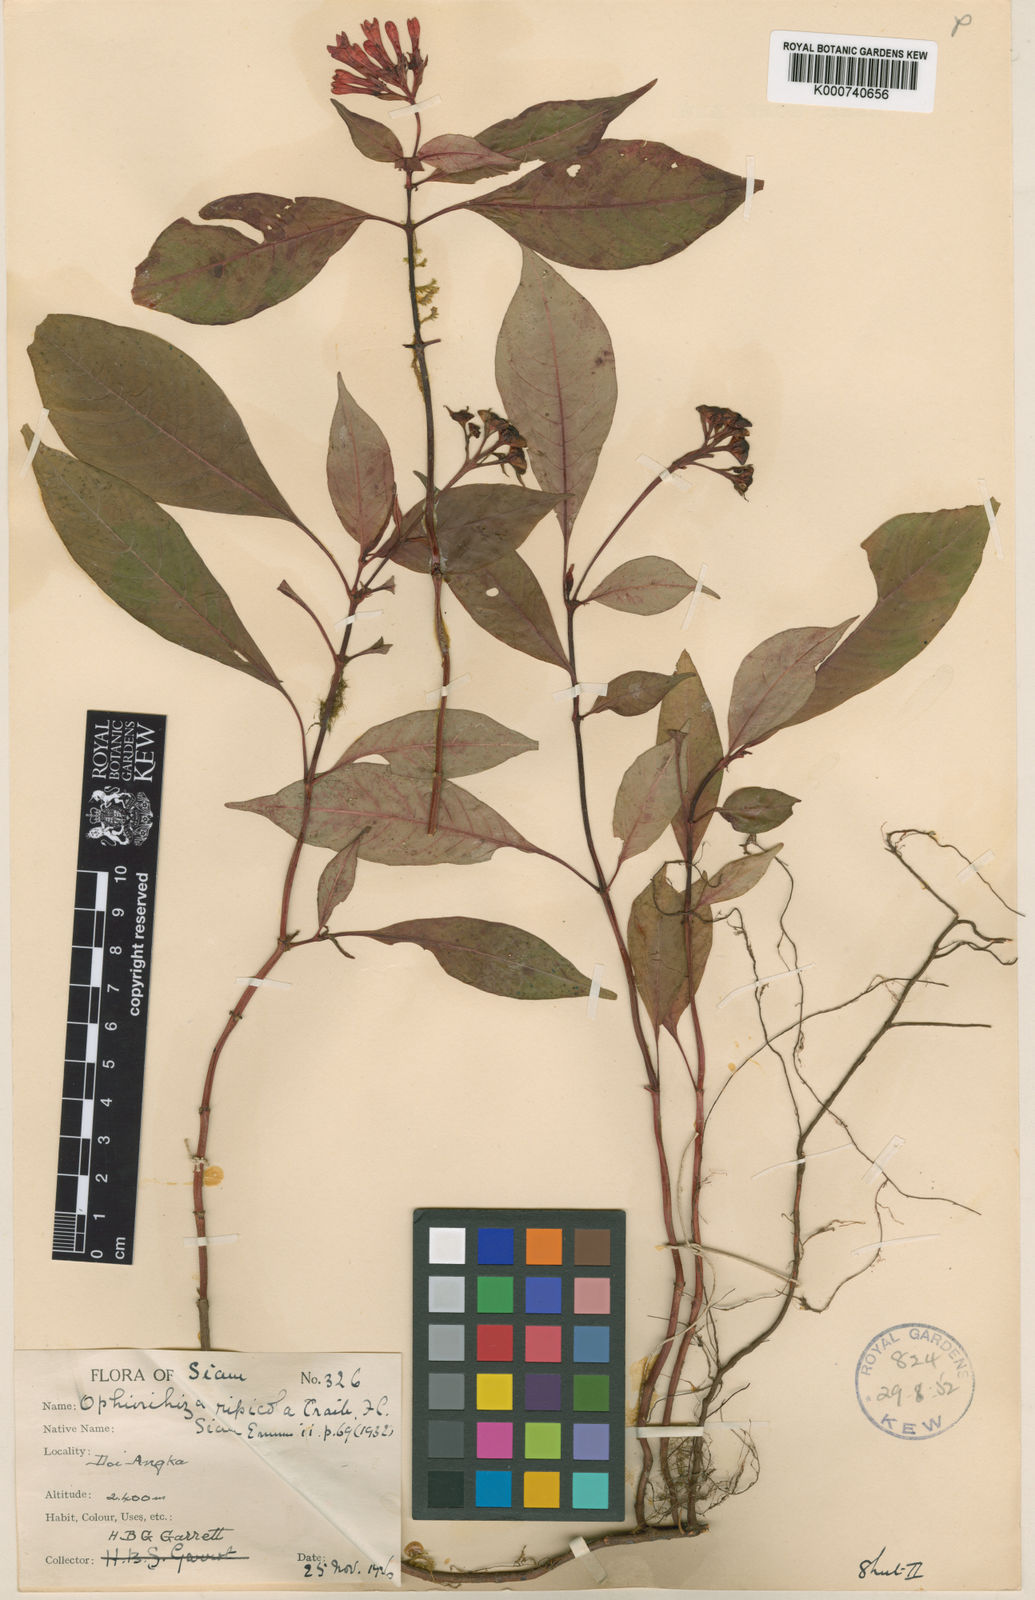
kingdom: Plantae
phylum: Tracheophyta
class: Magnoliopsida
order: Gentianales
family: Rubiaceae
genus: Ophiorrhiza
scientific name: Ophiorrhiza ripicola
